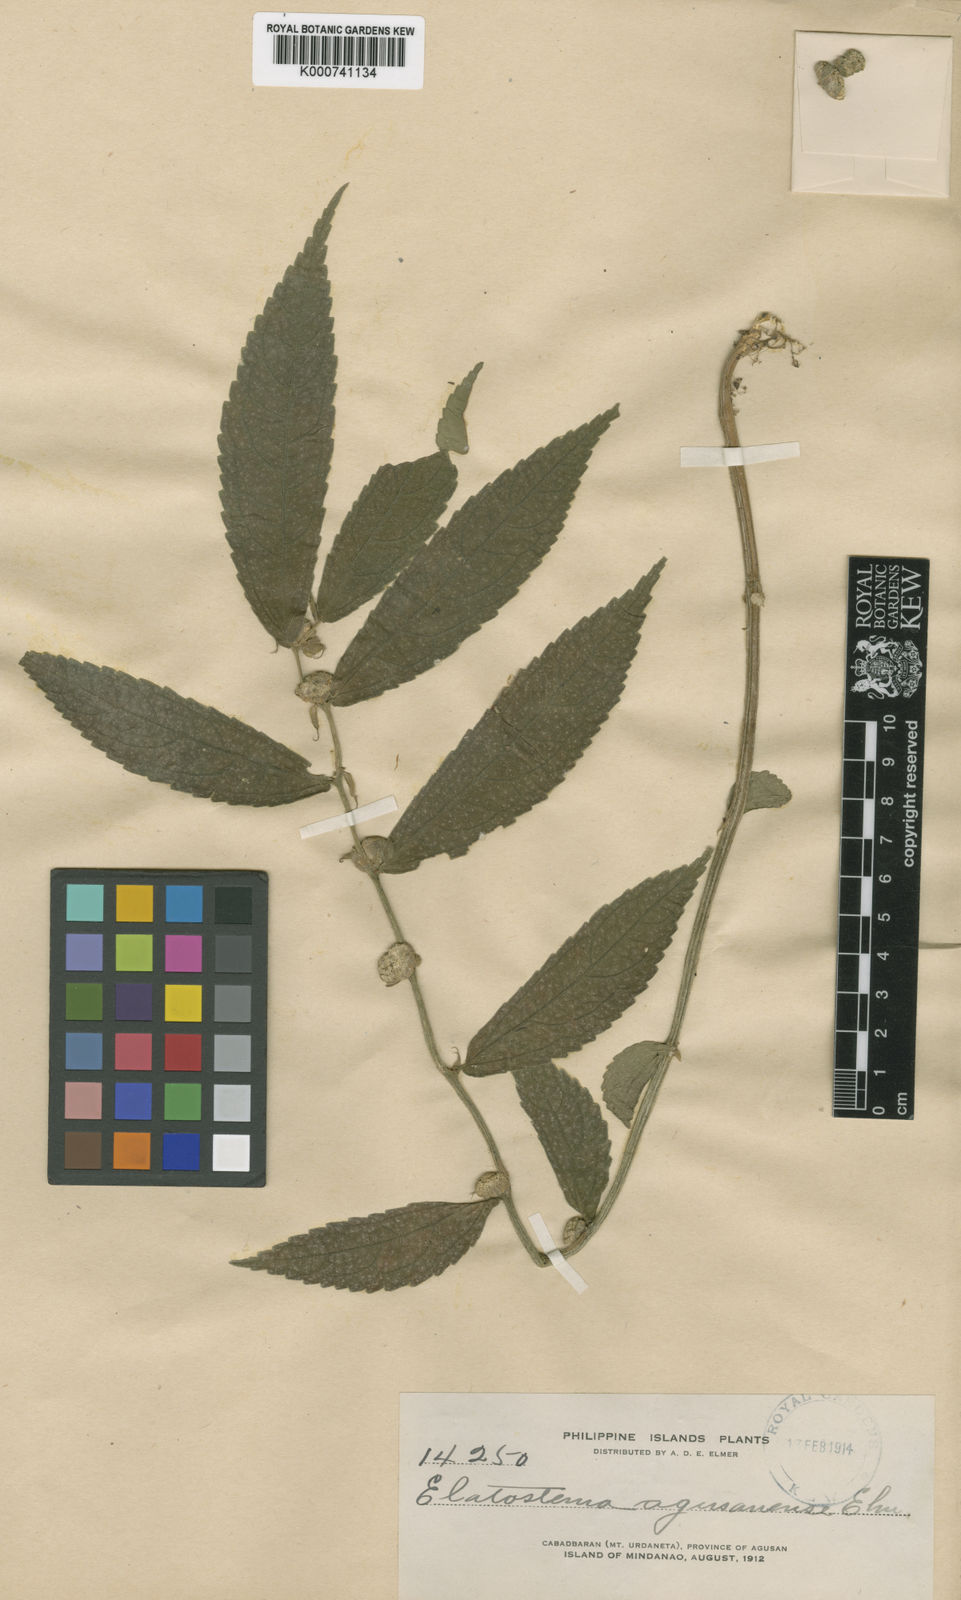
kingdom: Plantae
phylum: Tracheophyta
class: Magnoliopsida
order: Rosales
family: Urticaceae
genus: Elatostema
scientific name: Elatostema agusanense
